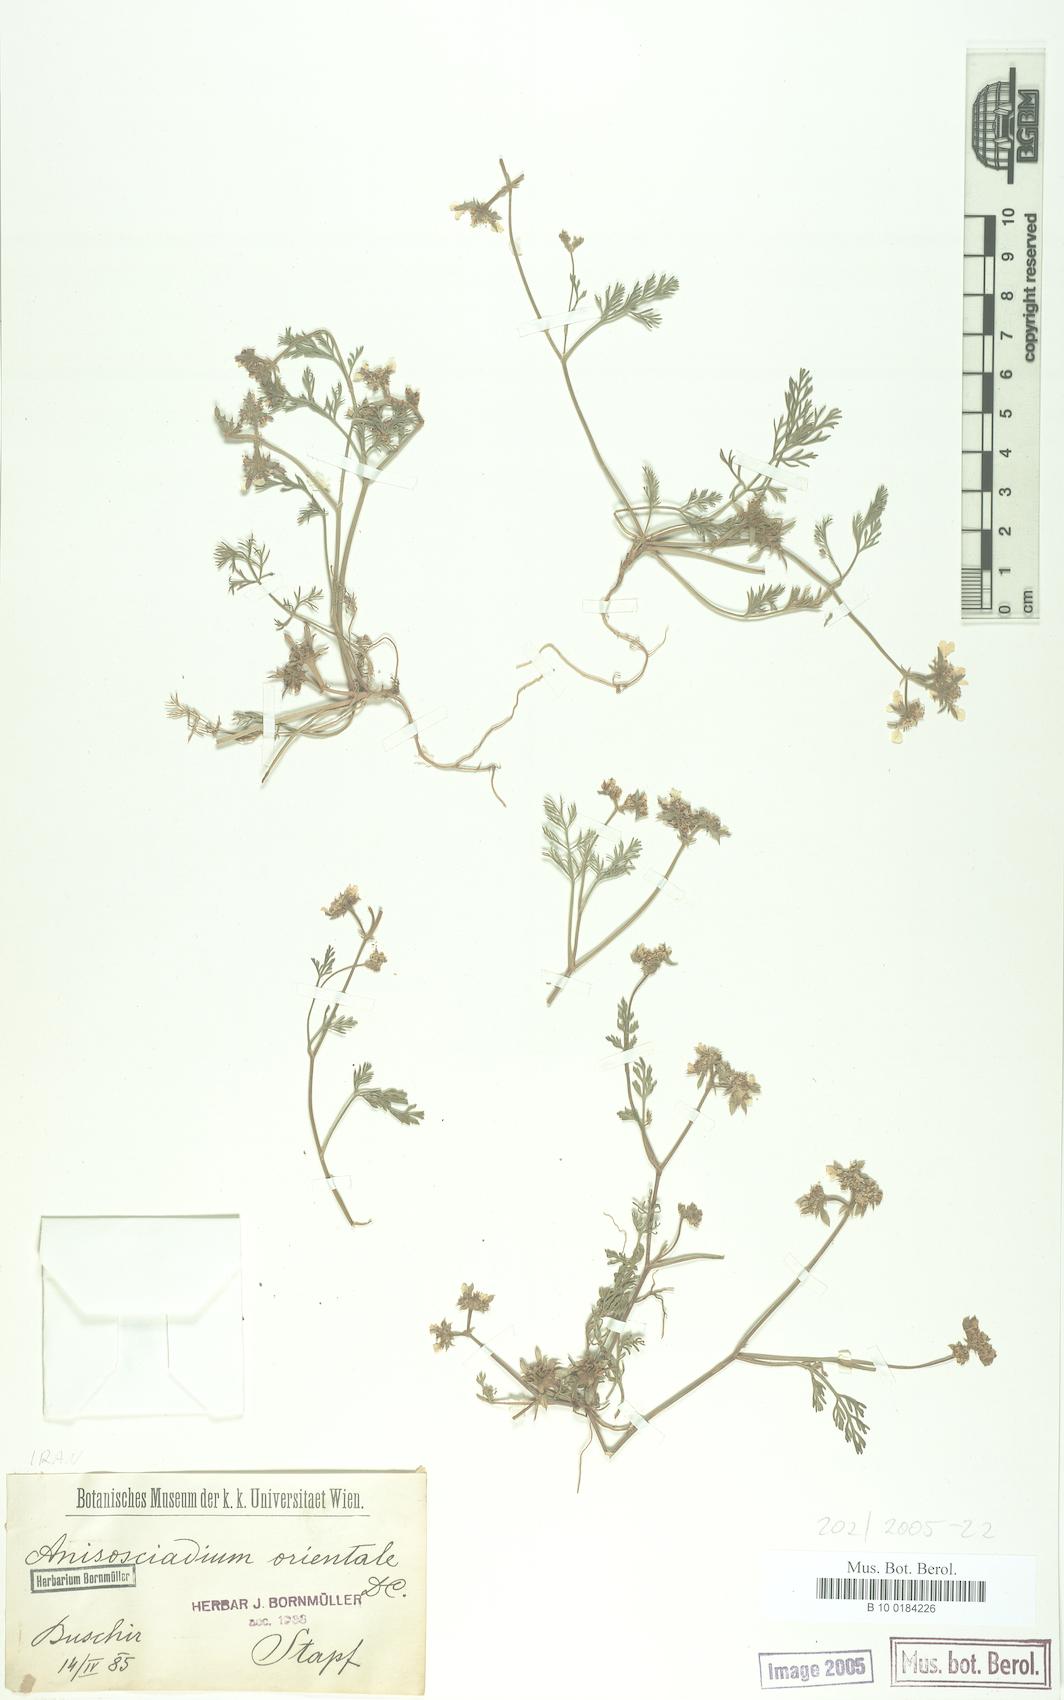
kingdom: Plantae
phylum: Tracheophyta
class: Magnoliopsida
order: Apiales
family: Apiaceae
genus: Anisosciadium
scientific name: Anisosciadium orientale
